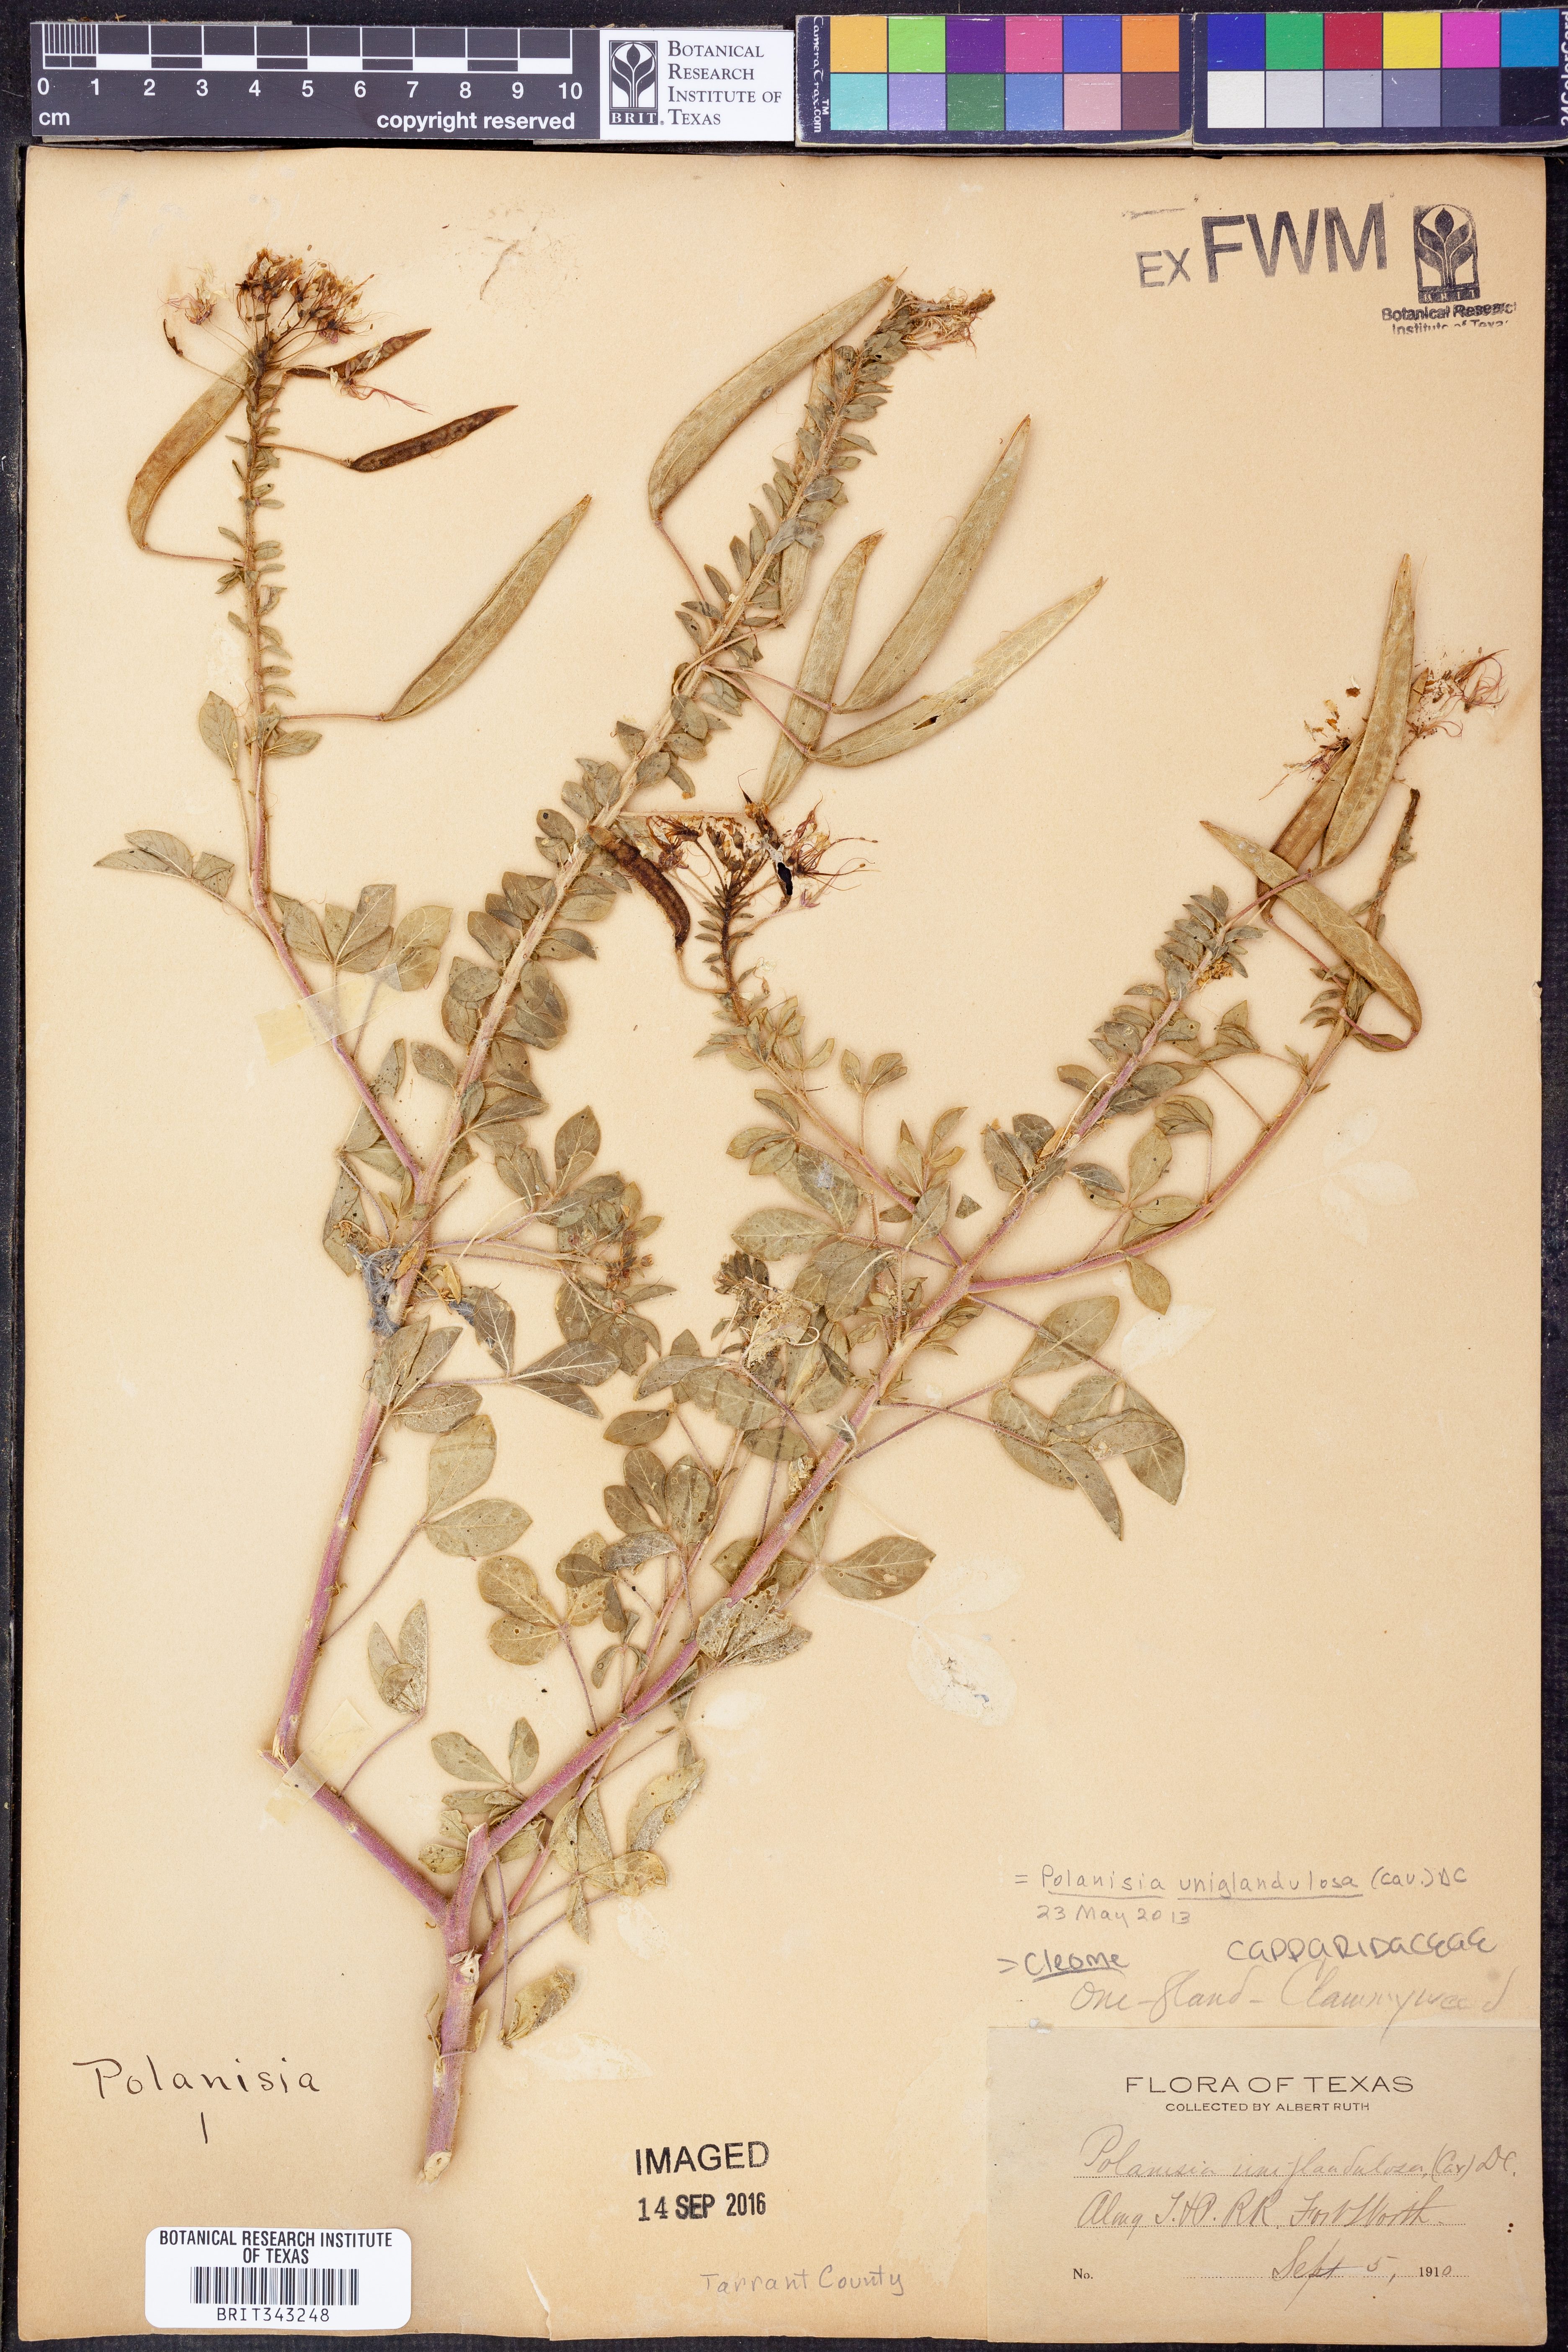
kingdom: Plantae
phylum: Tracheophyta
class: Magnoliopsida
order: Brassicales
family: Cleomaceae
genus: Polanisia
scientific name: Polanisia uniglandulosa
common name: Mexican clammyweed
